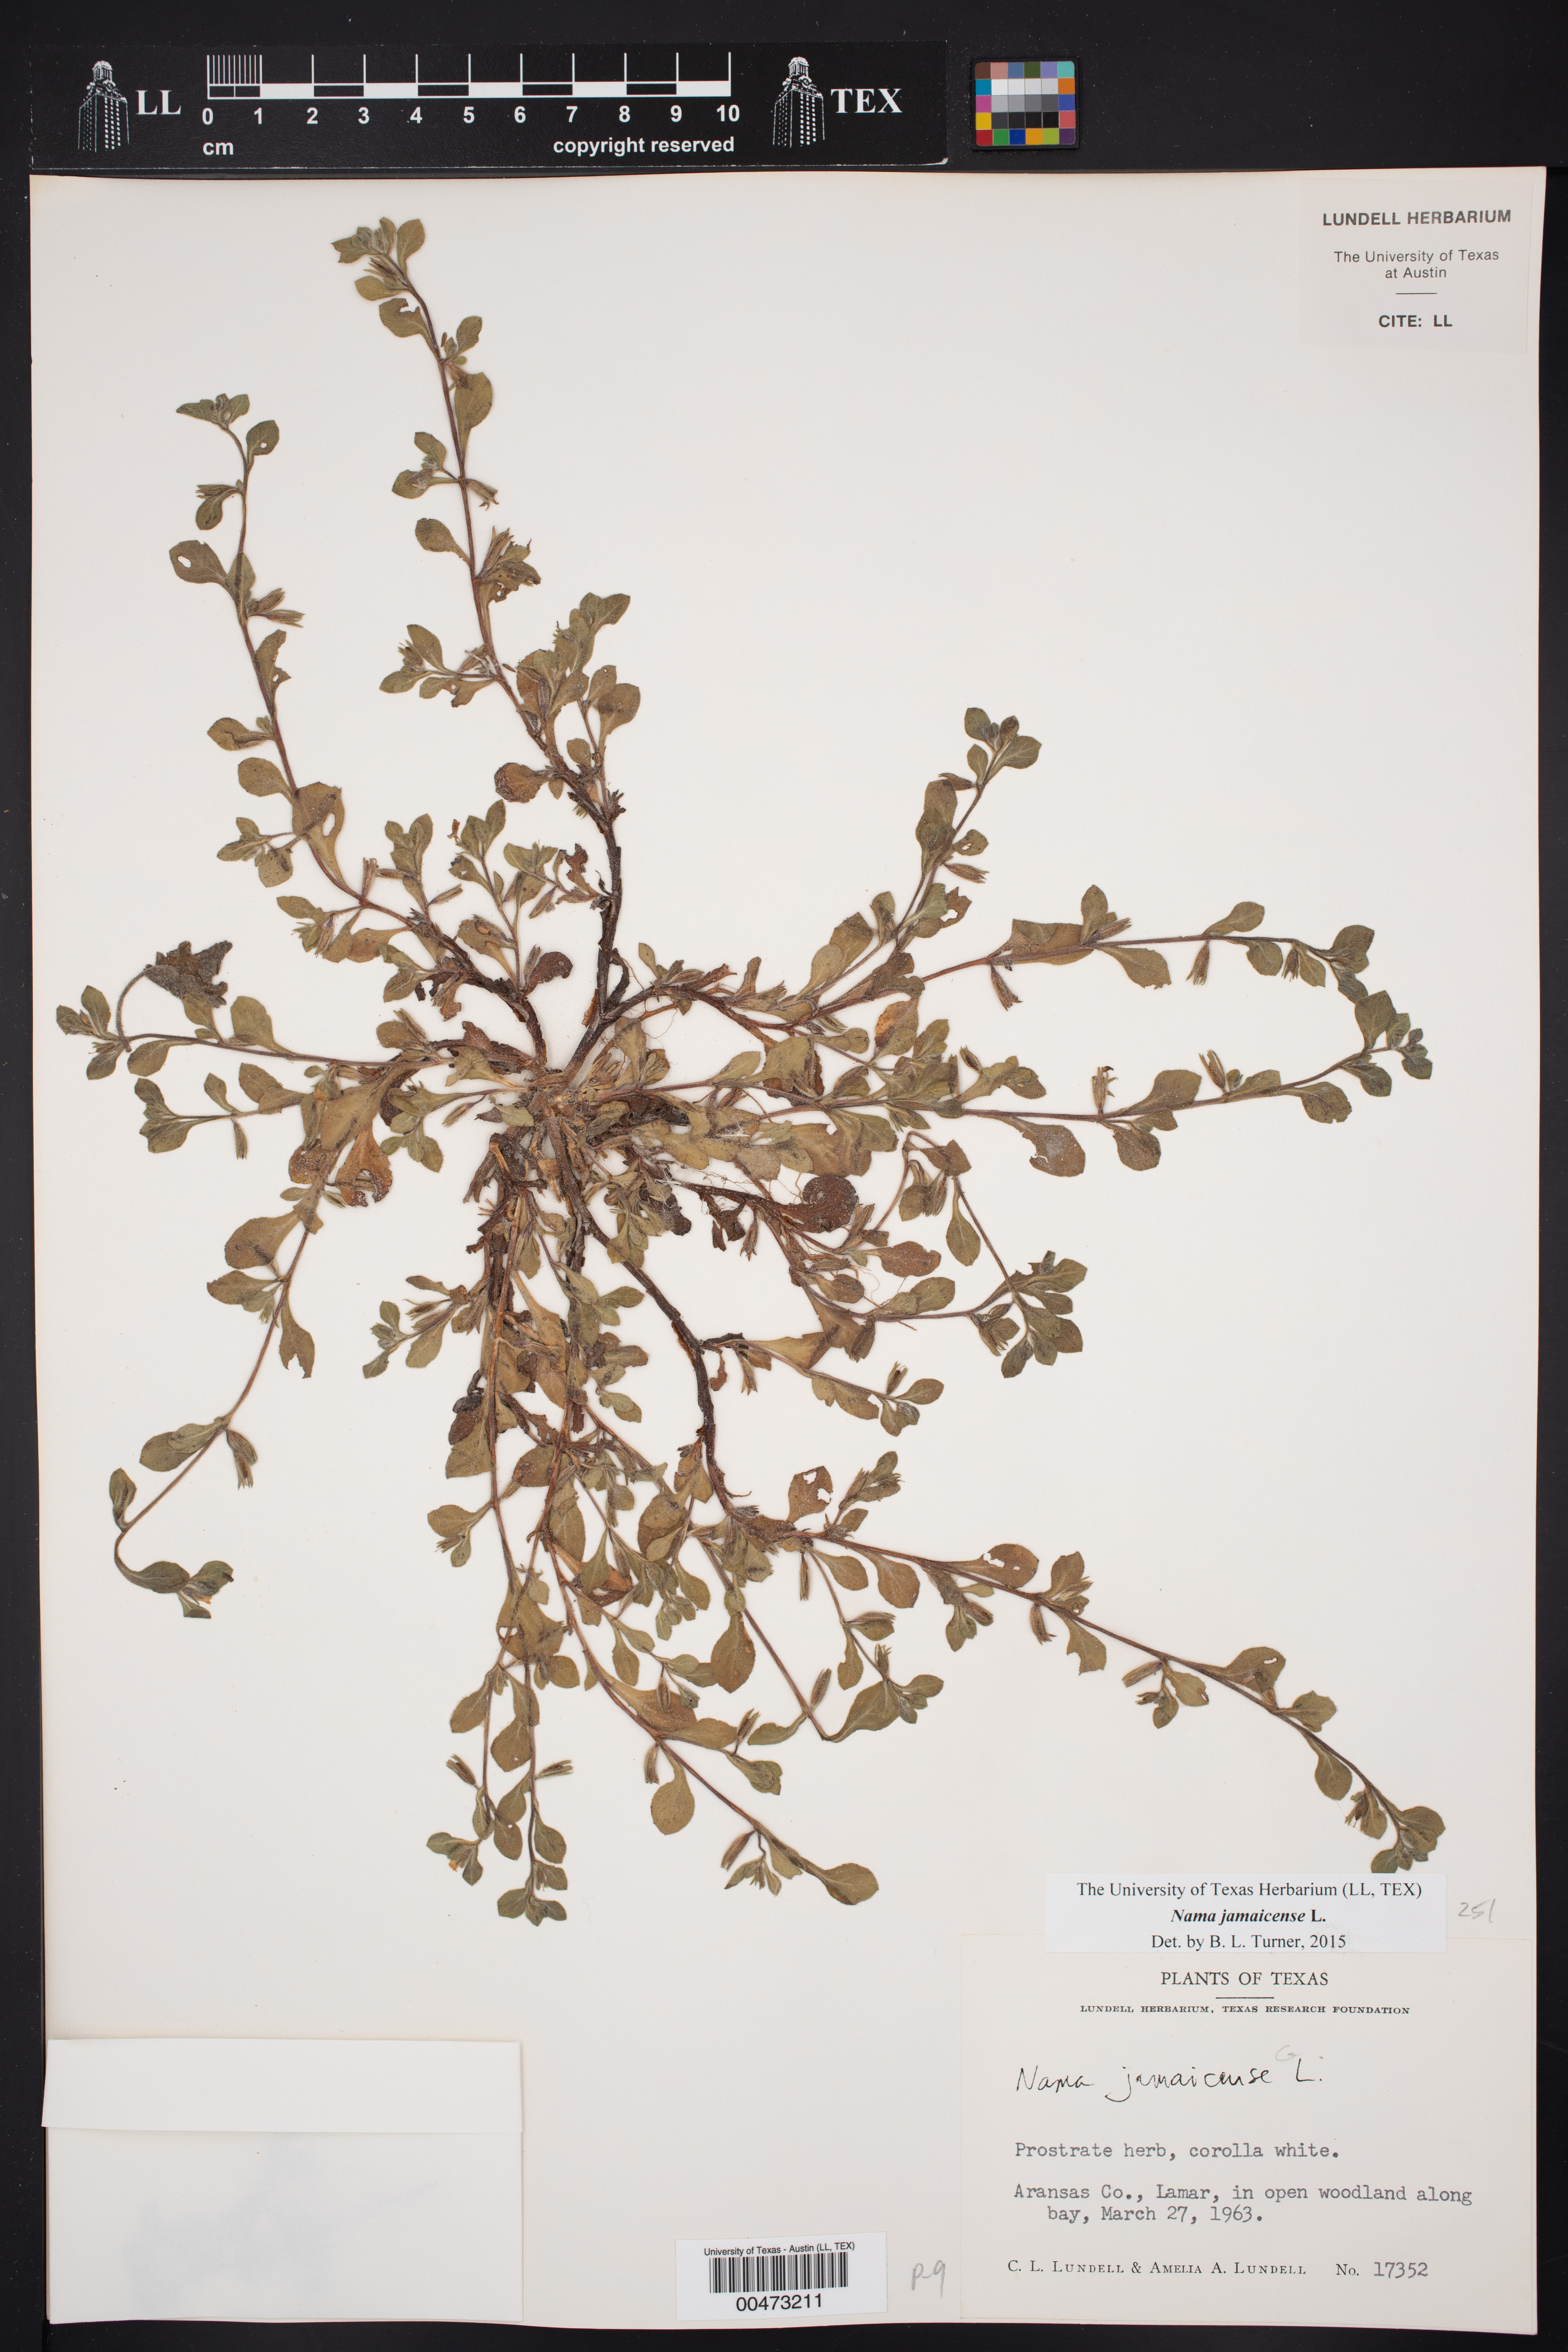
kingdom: Plantae
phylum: Tracheophyta
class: Magnoliopsida
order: Boraginales
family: Namaceae
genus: Nama
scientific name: Nama jamaicensis
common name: Jamaicanweed
